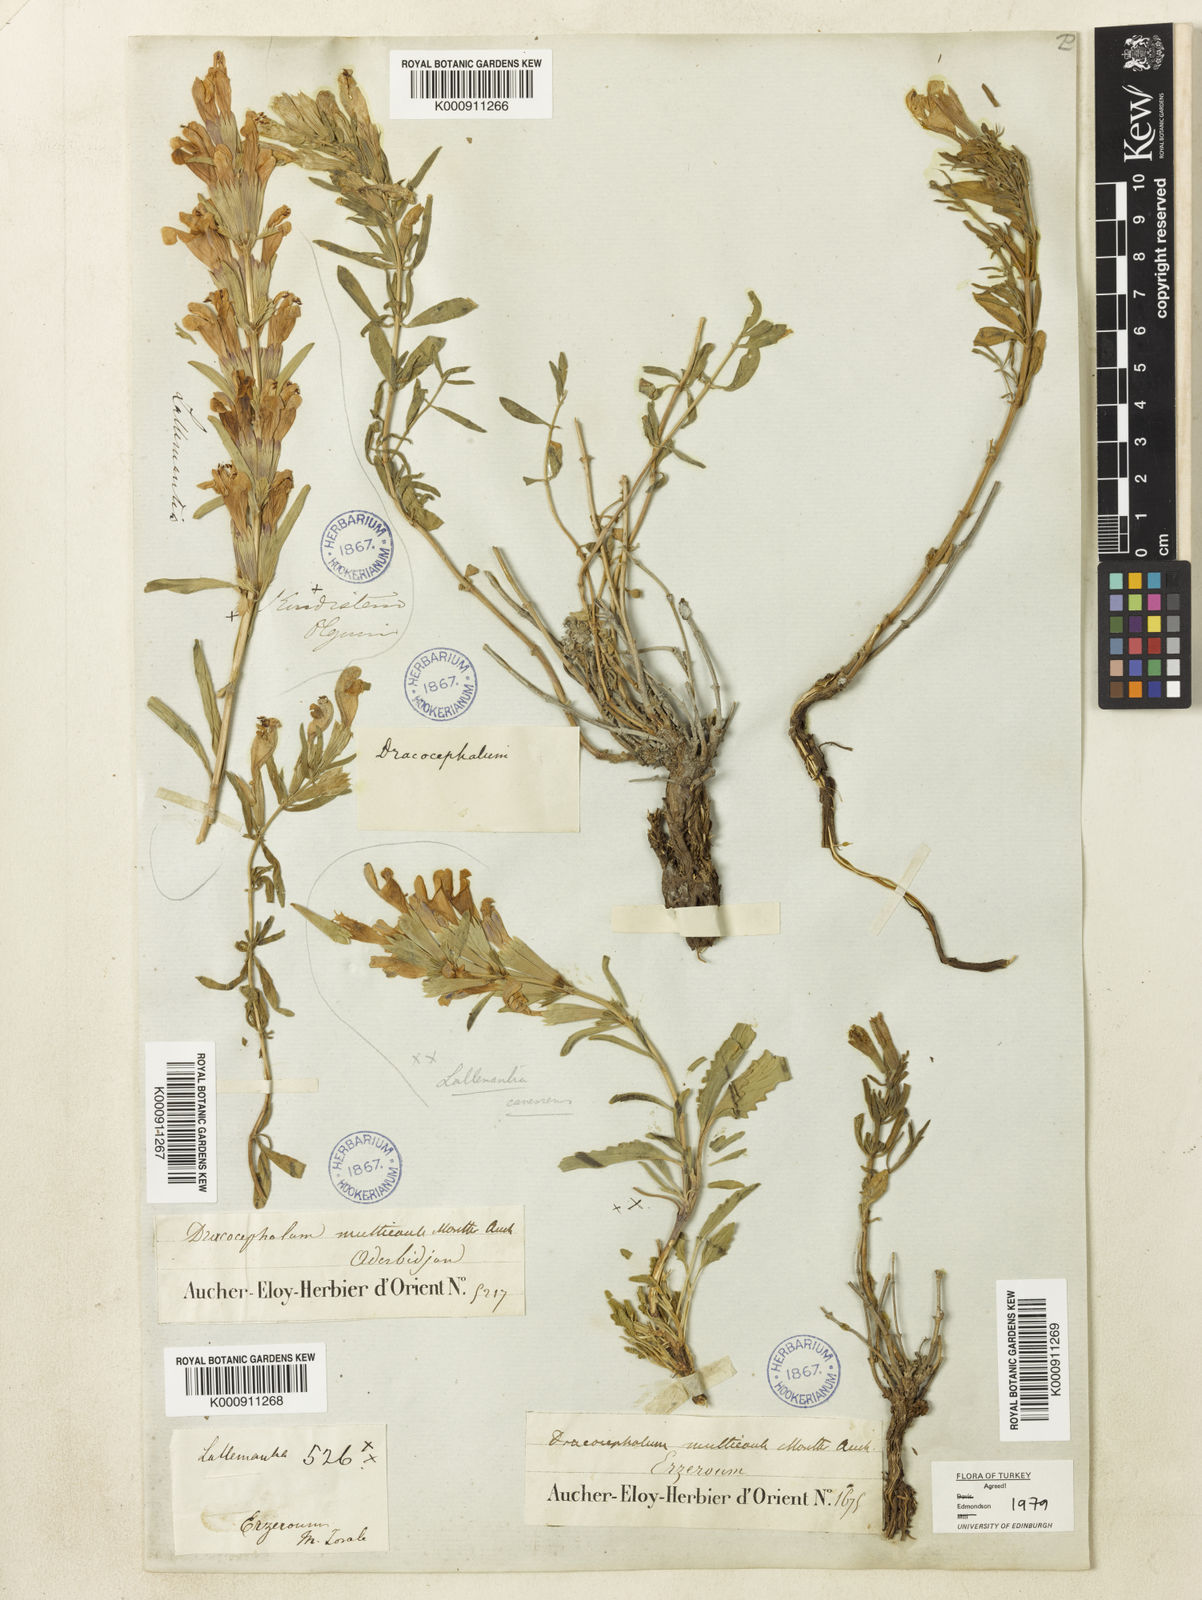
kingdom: Plantae
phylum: Tracheophyta
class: Magnoliopsida
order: Lamiales
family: Lamiaceae
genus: Dracocephalum
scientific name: Dracocephalum
